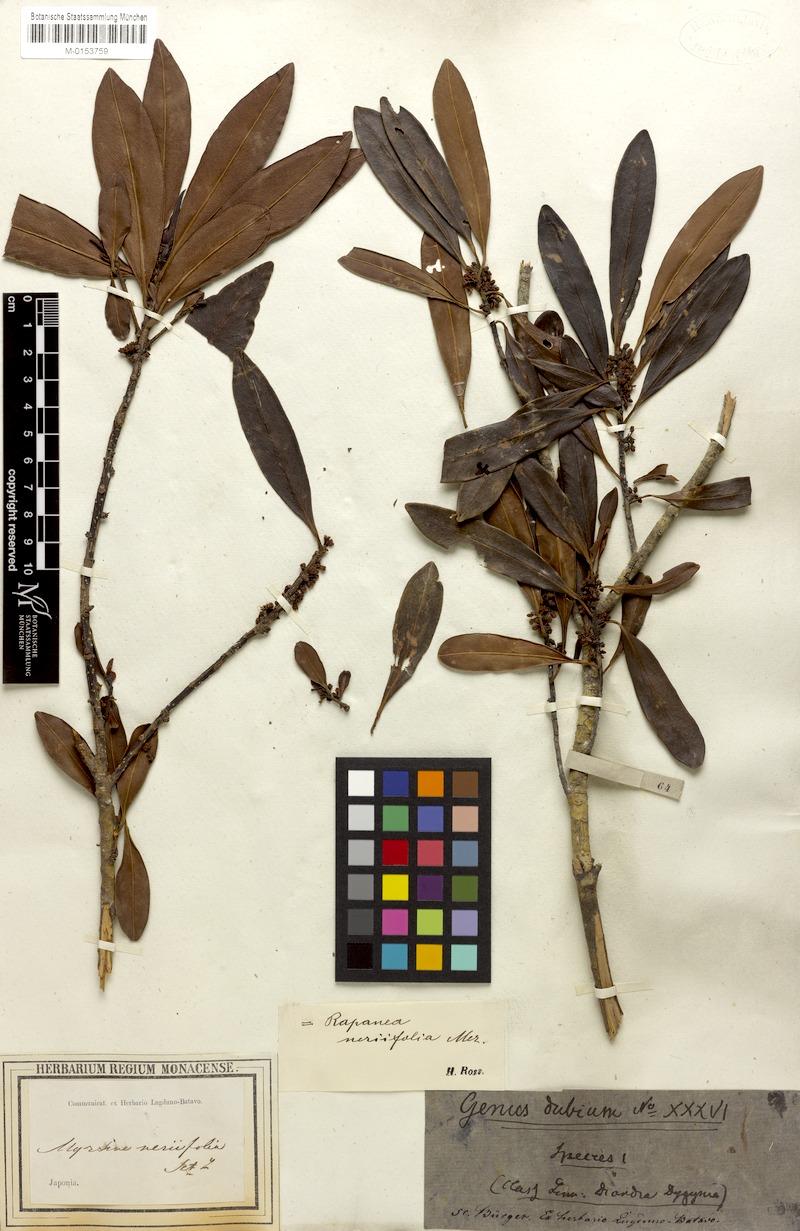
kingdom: Plantae
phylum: Tracheophyta
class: Magnoliopsida
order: Ericales
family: Primulaceae
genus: Myrsine
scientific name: Myrsine seguinii
